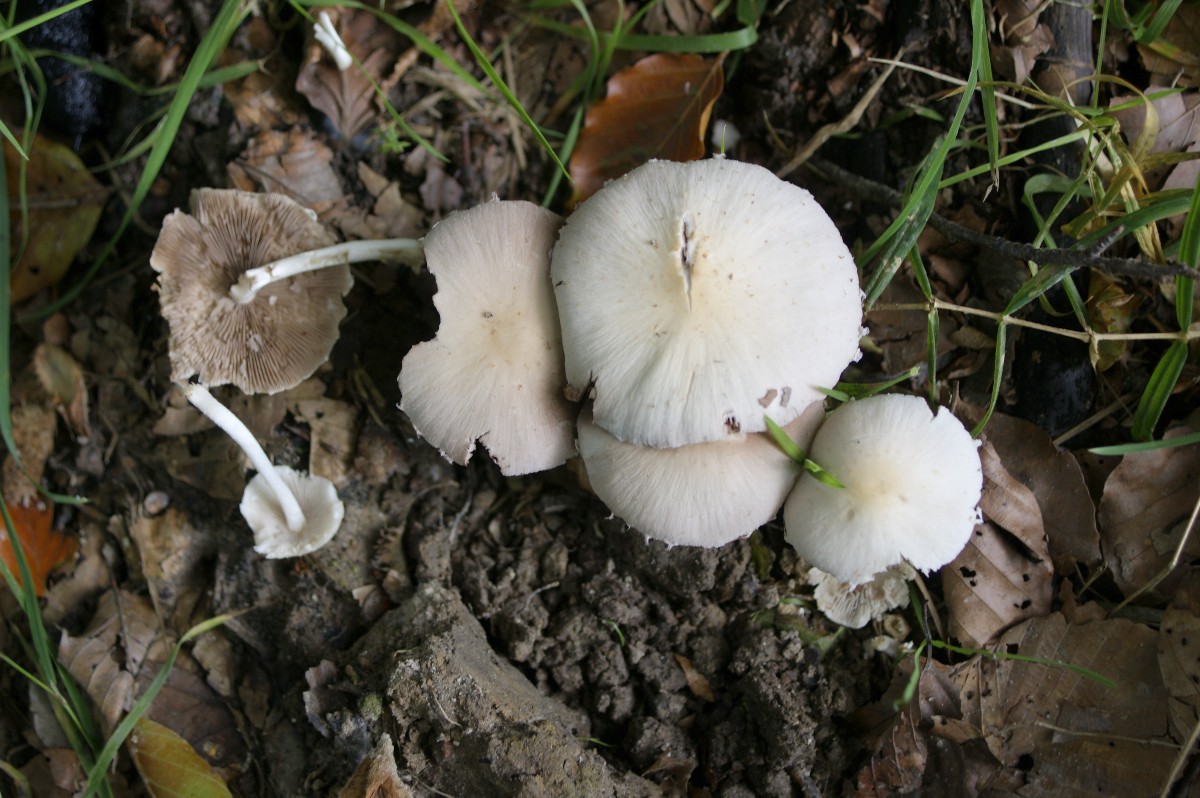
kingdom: Fungi
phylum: Basidiomycota
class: Agaricomycetes
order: Agaricales
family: Psathyrellaceae
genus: Candolleomyces
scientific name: Candolleomyces candolleanus
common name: Candolles mørkhat
